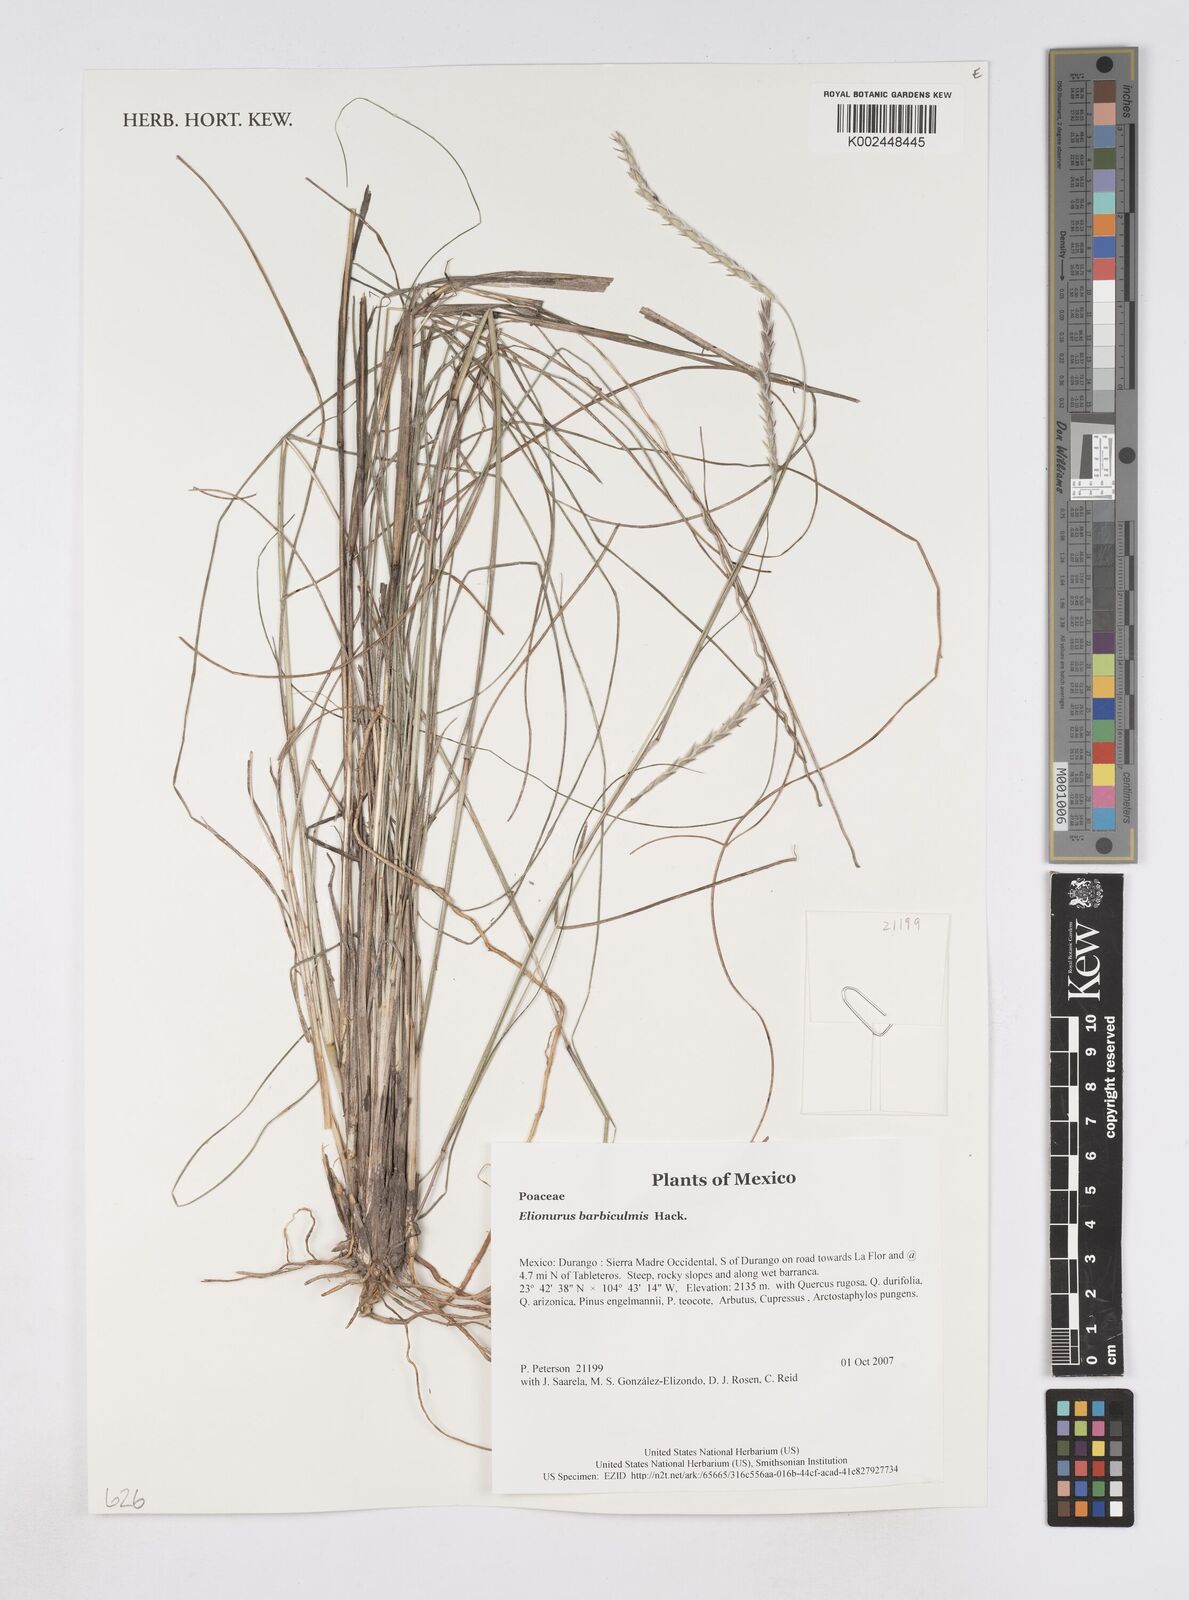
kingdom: Plantae
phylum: Tracheophyta
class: Liliopsida
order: Poales
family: Poaceae
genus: Elionurus
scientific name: Elionurus barbiculmis
